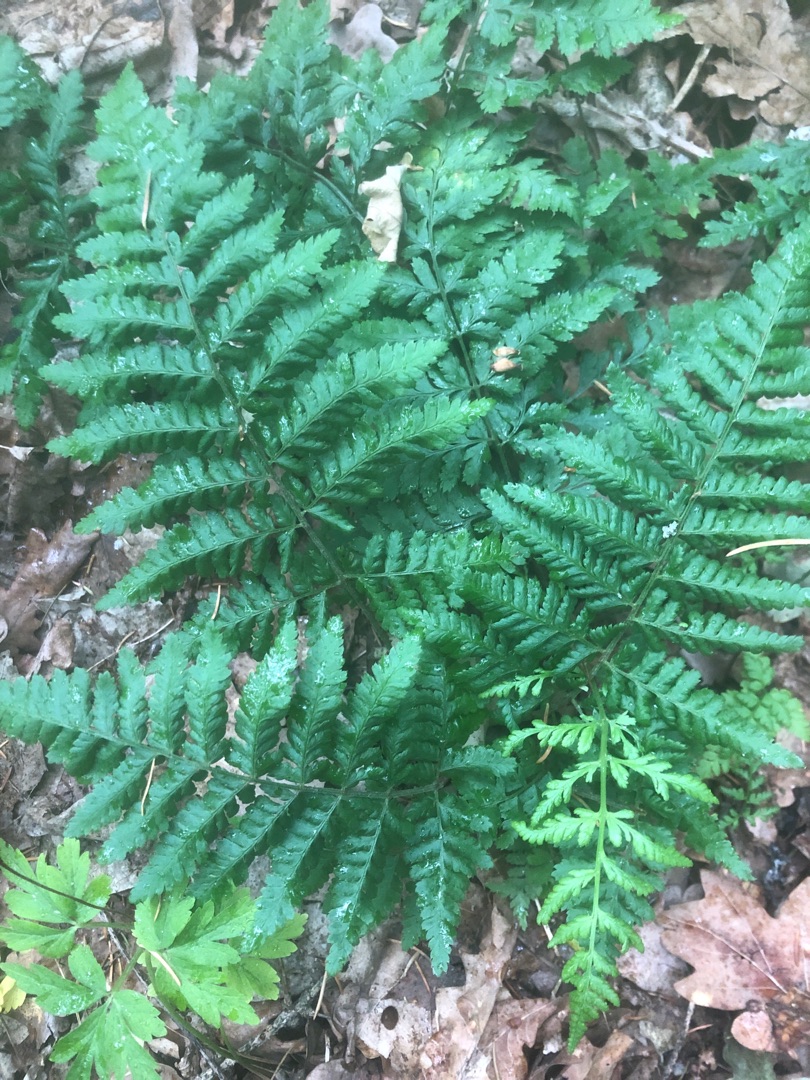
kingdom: Plantae
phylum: Tracheophyta
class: Polypodiopsida
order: Polypodiales
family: Dryopteridaceae
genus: Dryopteris
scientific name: Dryopteris dilatata
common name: Bredbladet mangeløv
